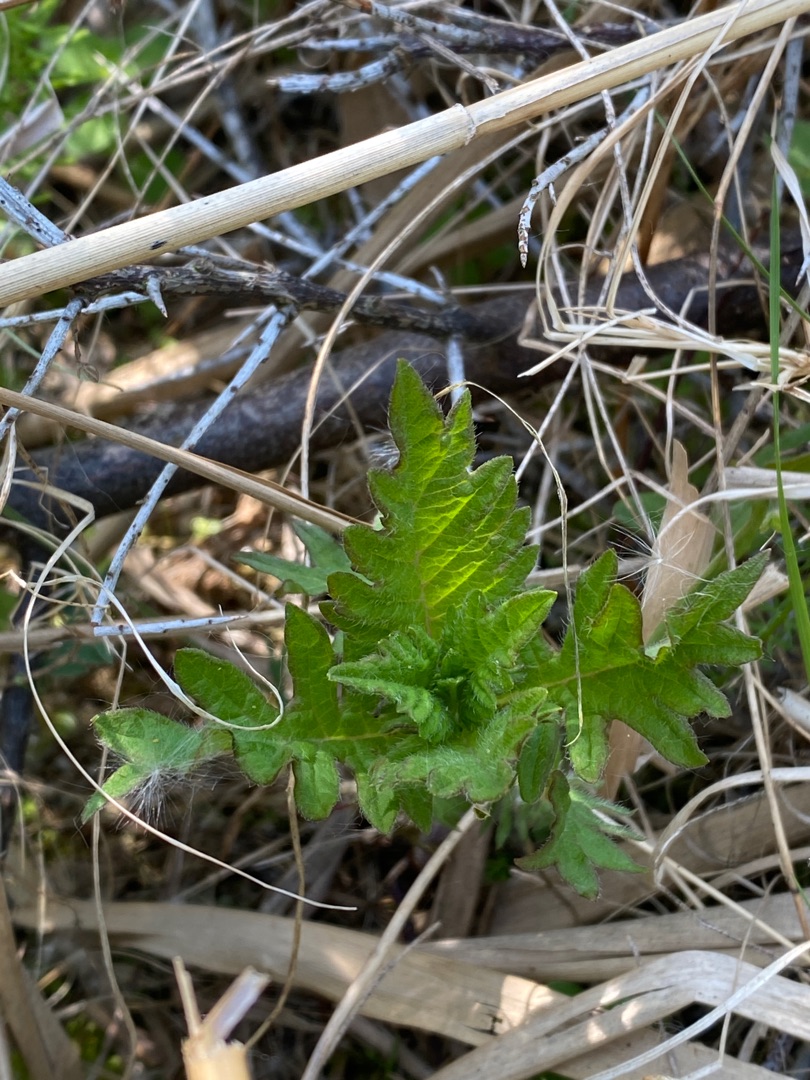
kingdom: Plantae
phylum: Tracheophyta
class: Magnoliopsida
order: Lamiales
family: Lamiaceae
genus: Lycopus
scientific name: Lycopus europaeus
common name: Sværtevæld
